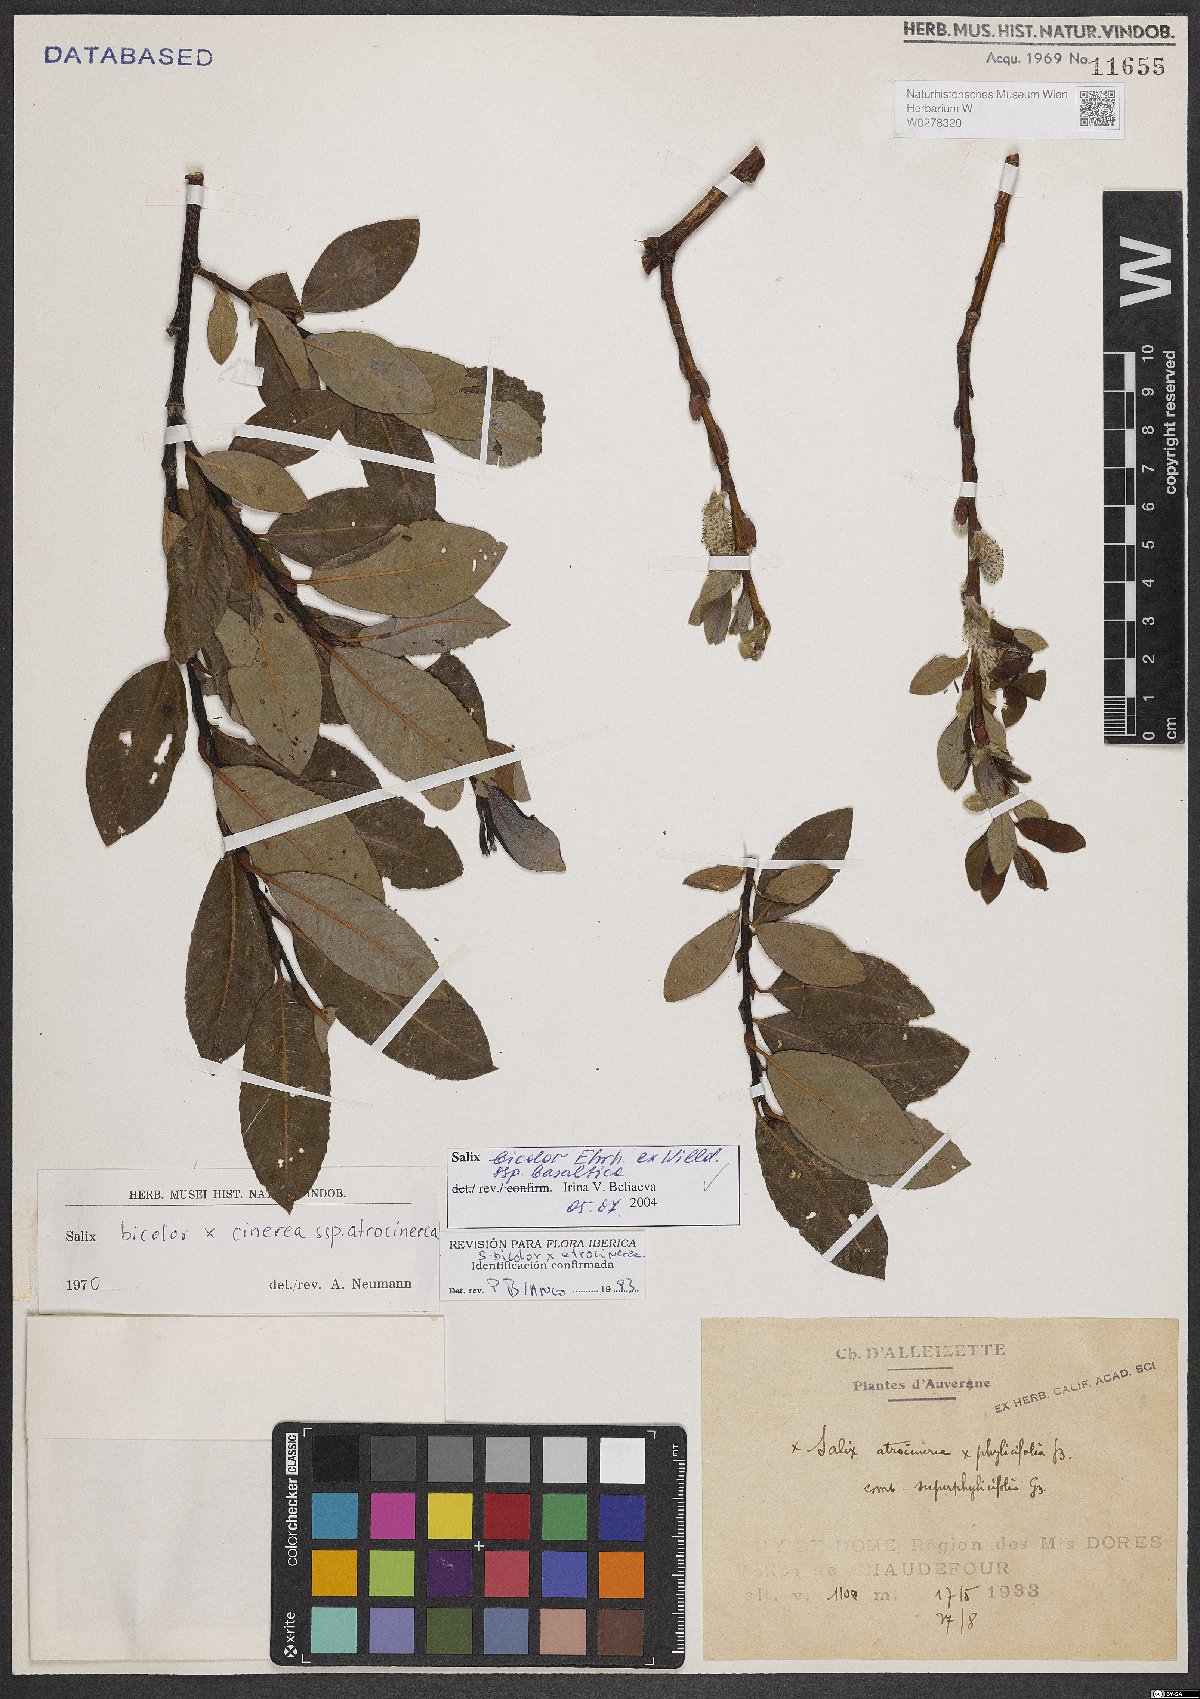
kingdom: Plantae
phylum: Tracheophyta
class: Magnoliopsida
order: Malpighiales
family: Salicaceae
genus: Salix
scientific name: Salix basaltica
